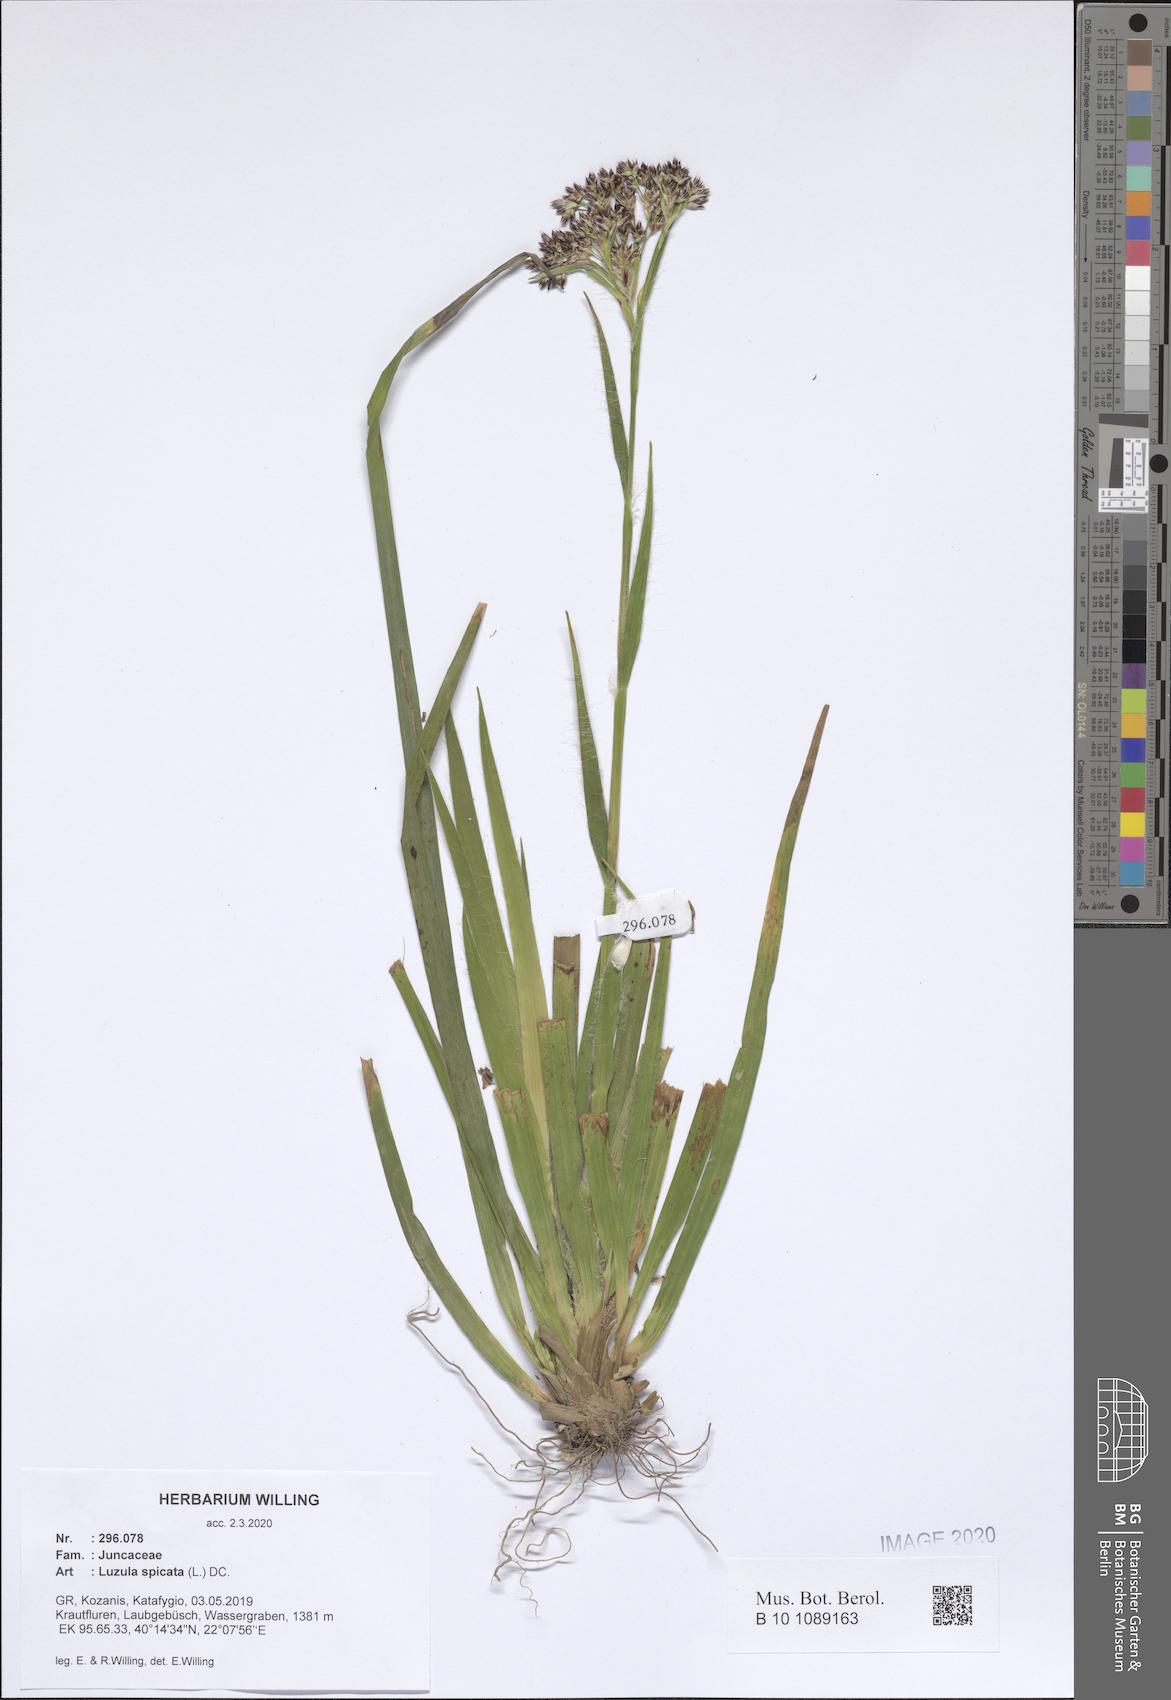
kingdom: Plantae
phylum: Tracheophyta
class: Liliopsida
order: Poales
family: Juncaceae
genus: Luzula
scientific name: Luzula spicata
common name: Spiked wood-rush
